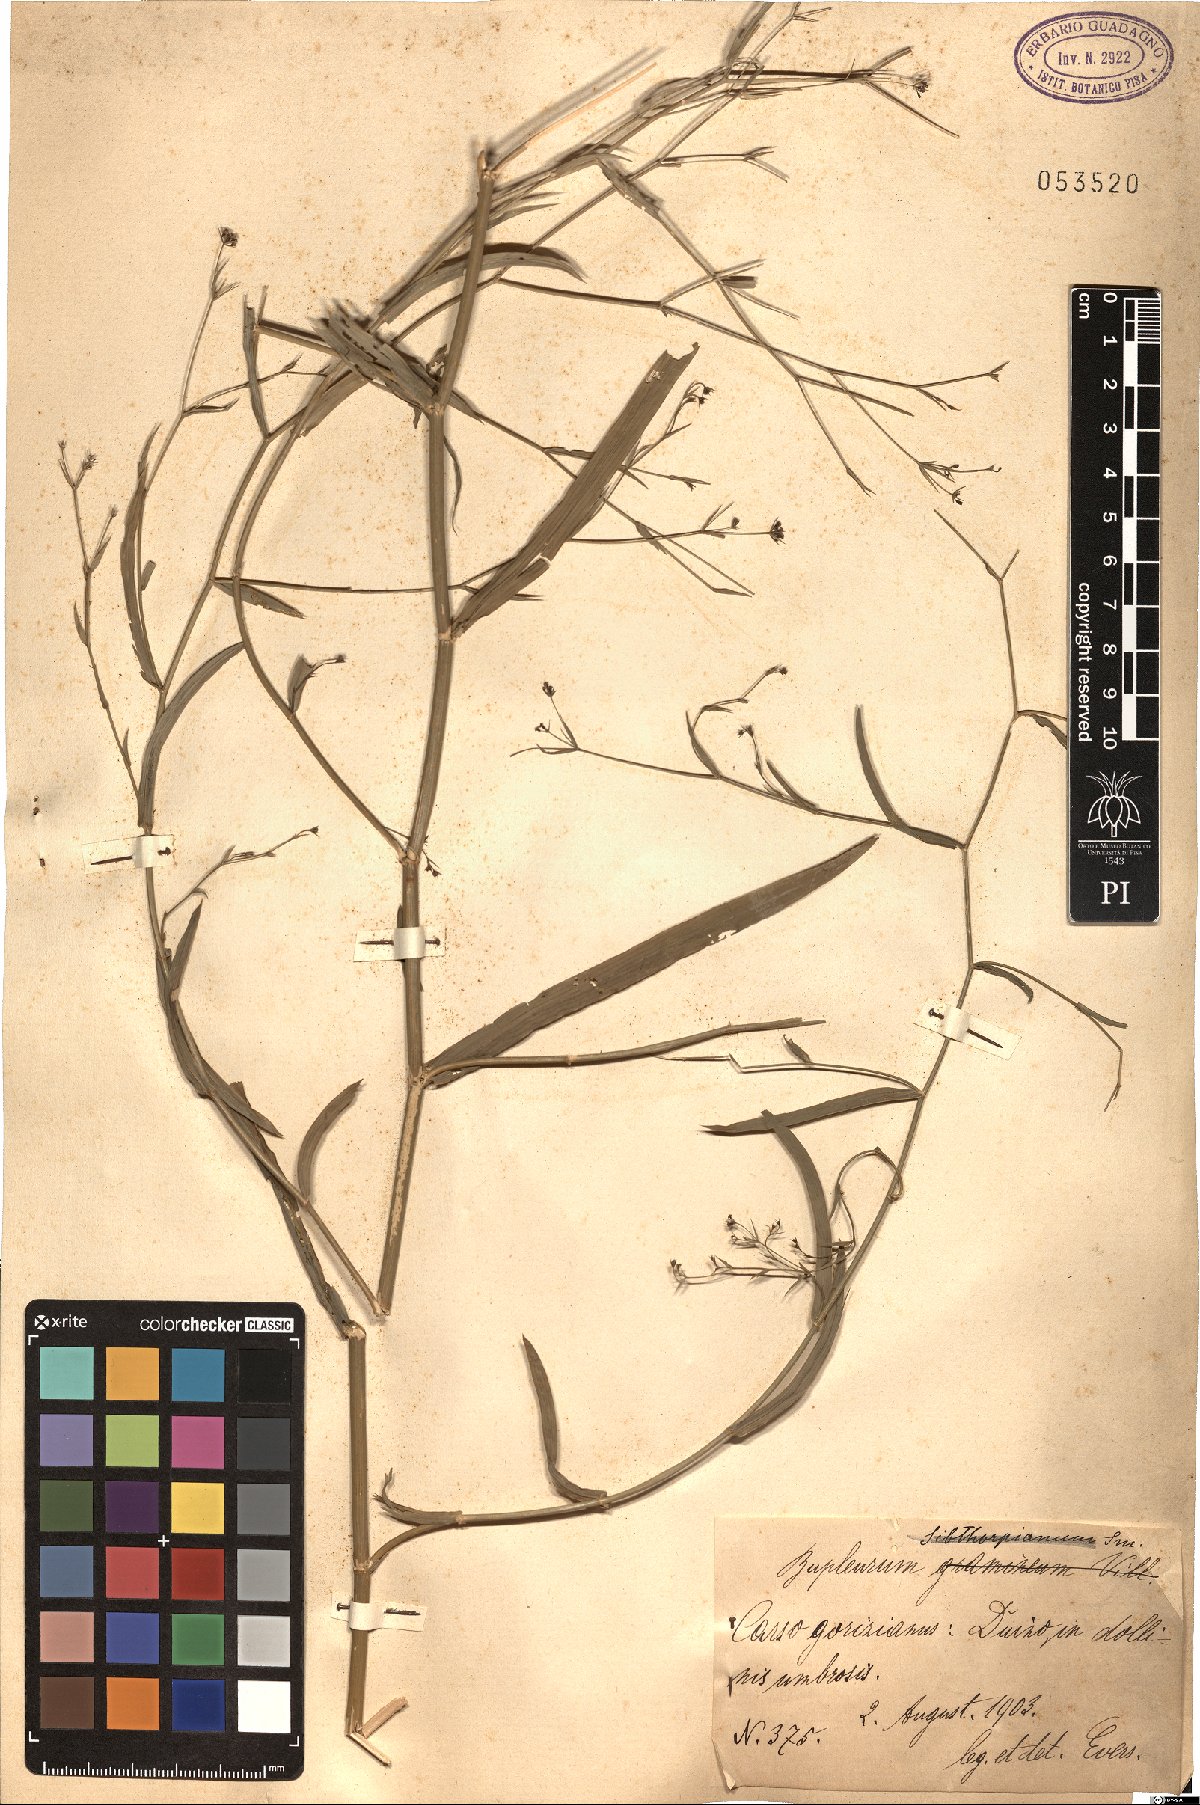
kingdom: Plantae
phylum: Tracheophyta
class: Magnoliopsida
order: Apiales
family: Apiaceae
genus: Bupleurum
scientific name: Bupleurum
